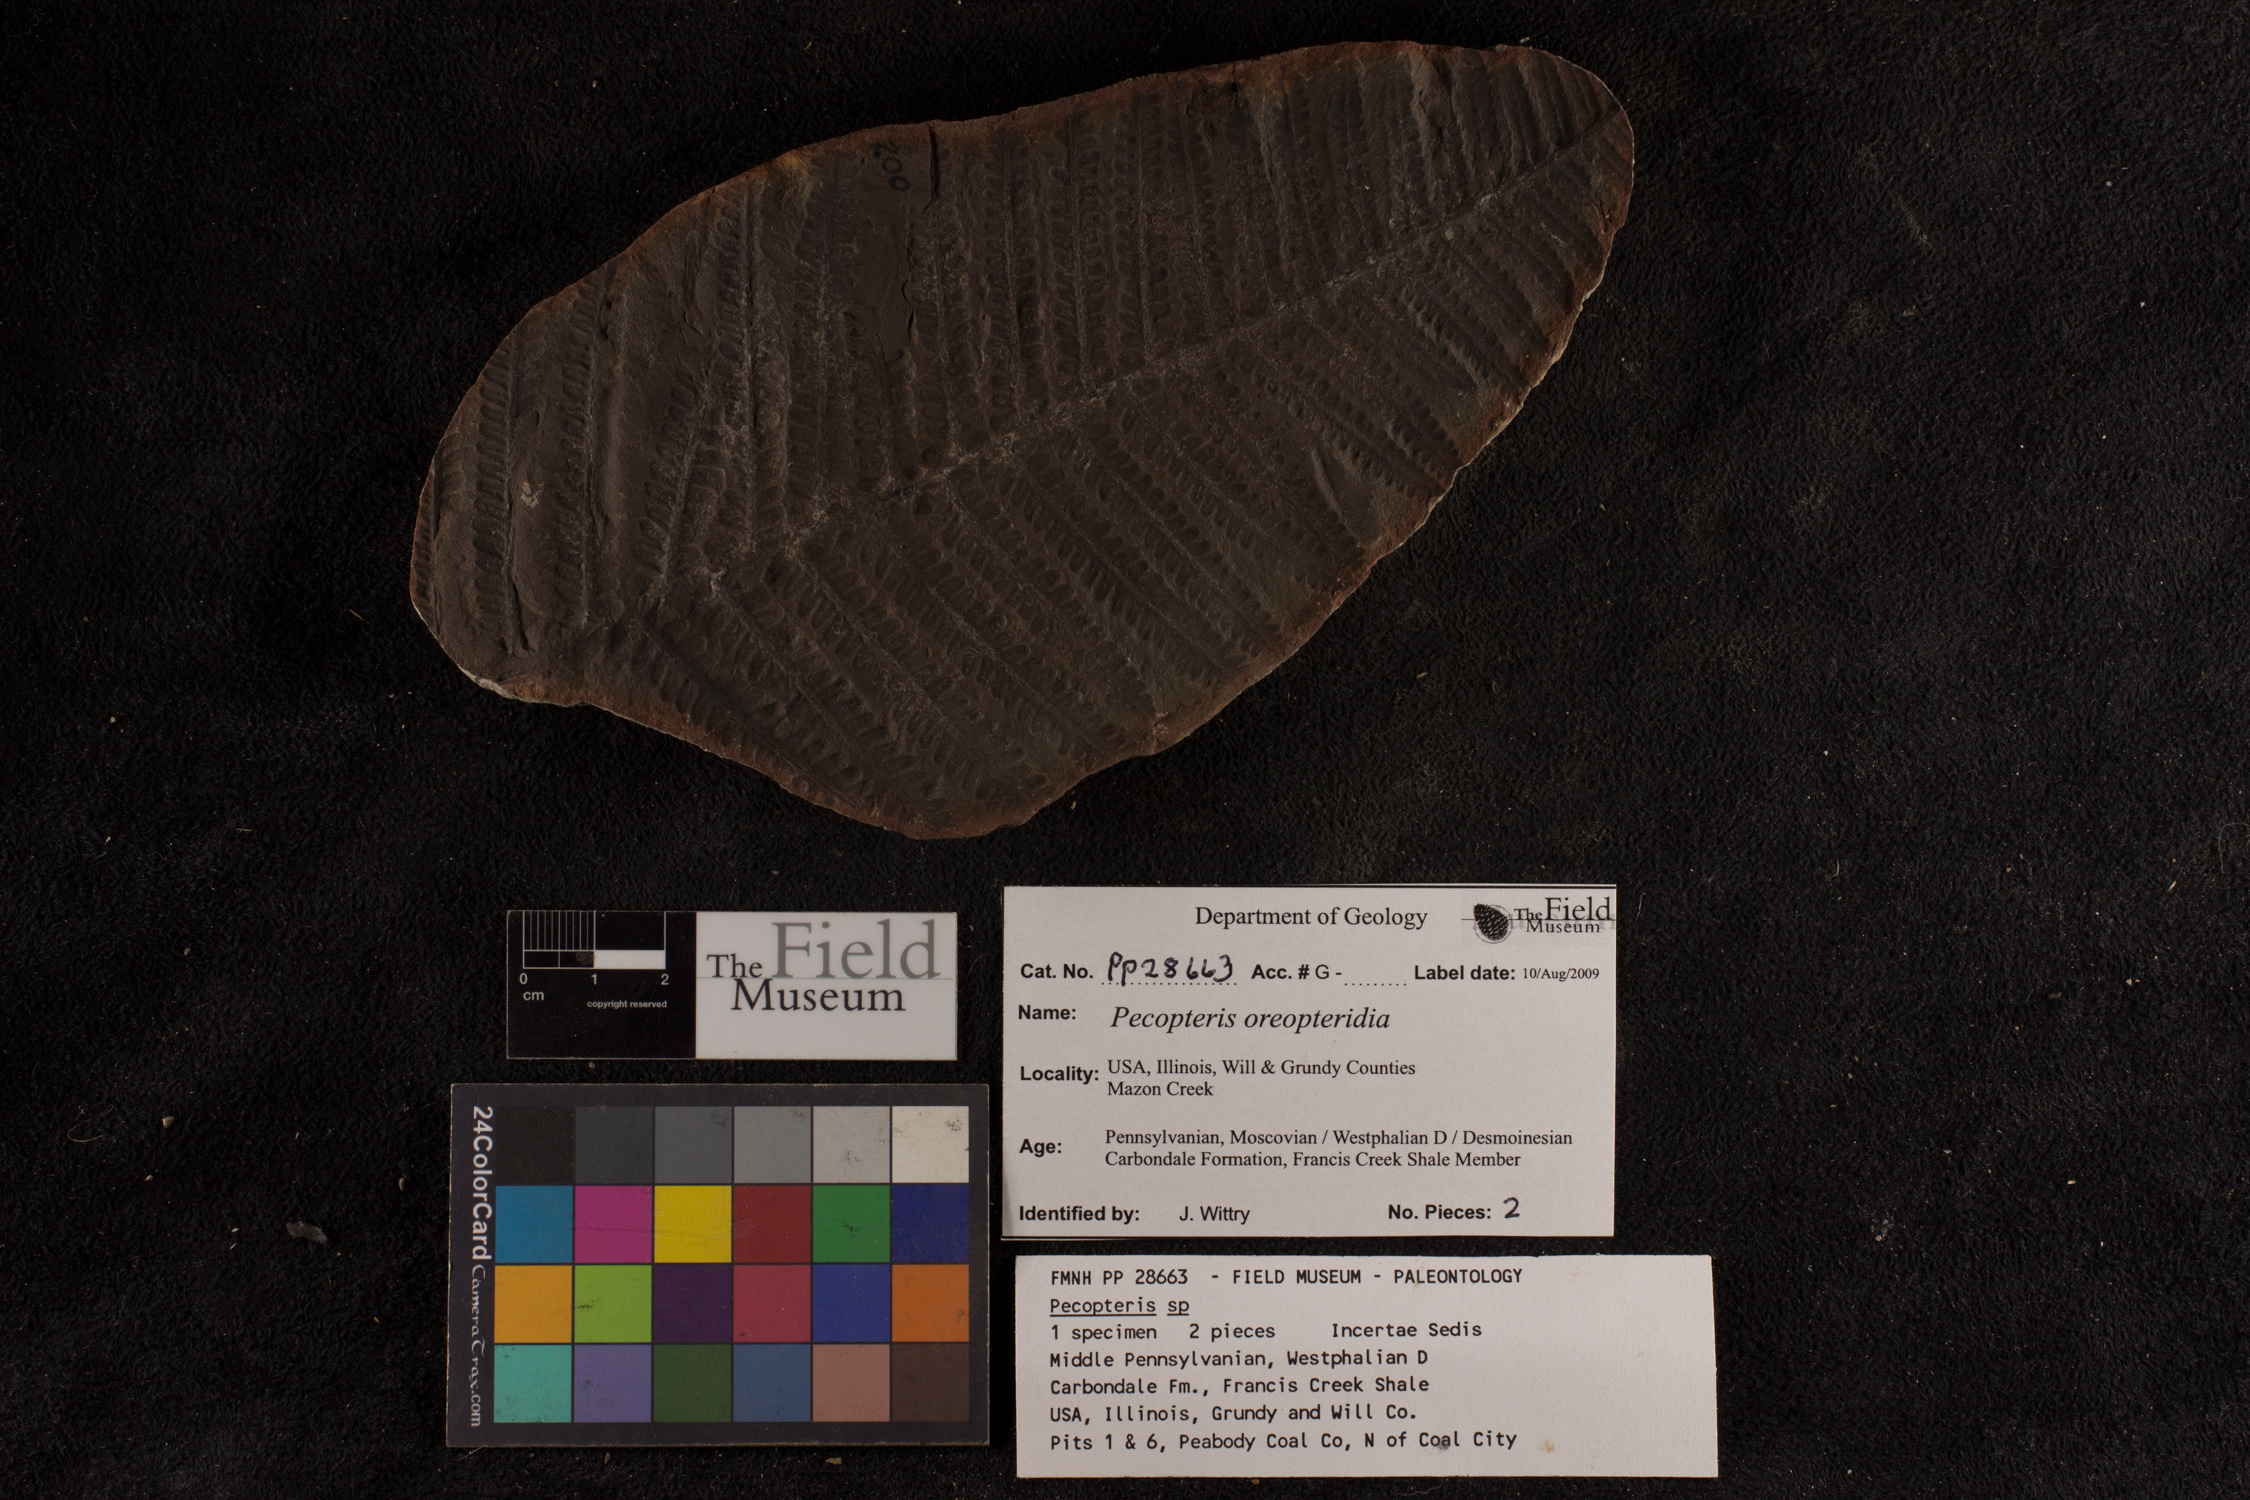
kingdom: Plantae
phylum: Tracheophyta
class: Polypodiopsida
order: Marattiales
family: Asterothecaceae
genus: Pecopteris
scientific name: Pecopteris
